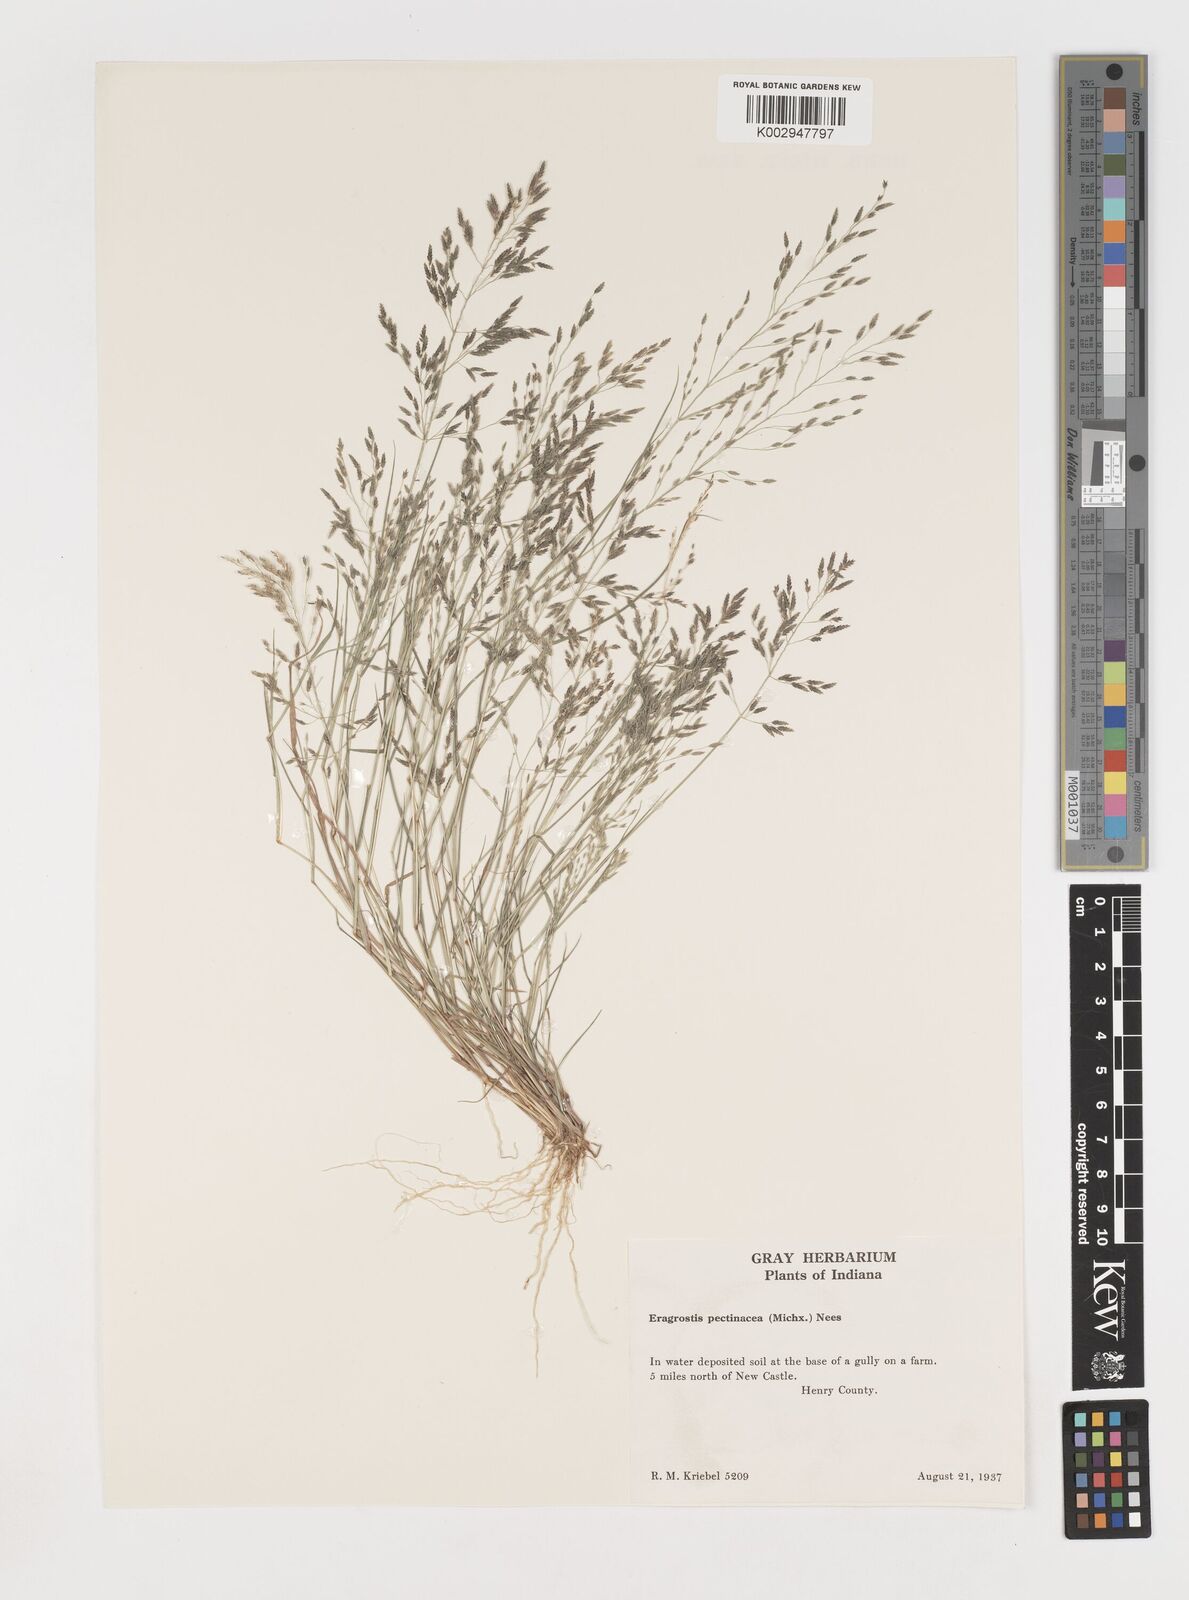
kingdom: Plantae
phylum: Tracheophyta
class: Liliopsida
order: Poales
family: Poaceae
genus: Eragrostis
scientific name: Eragrostis pectinacea
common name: Tufted lovegrass
